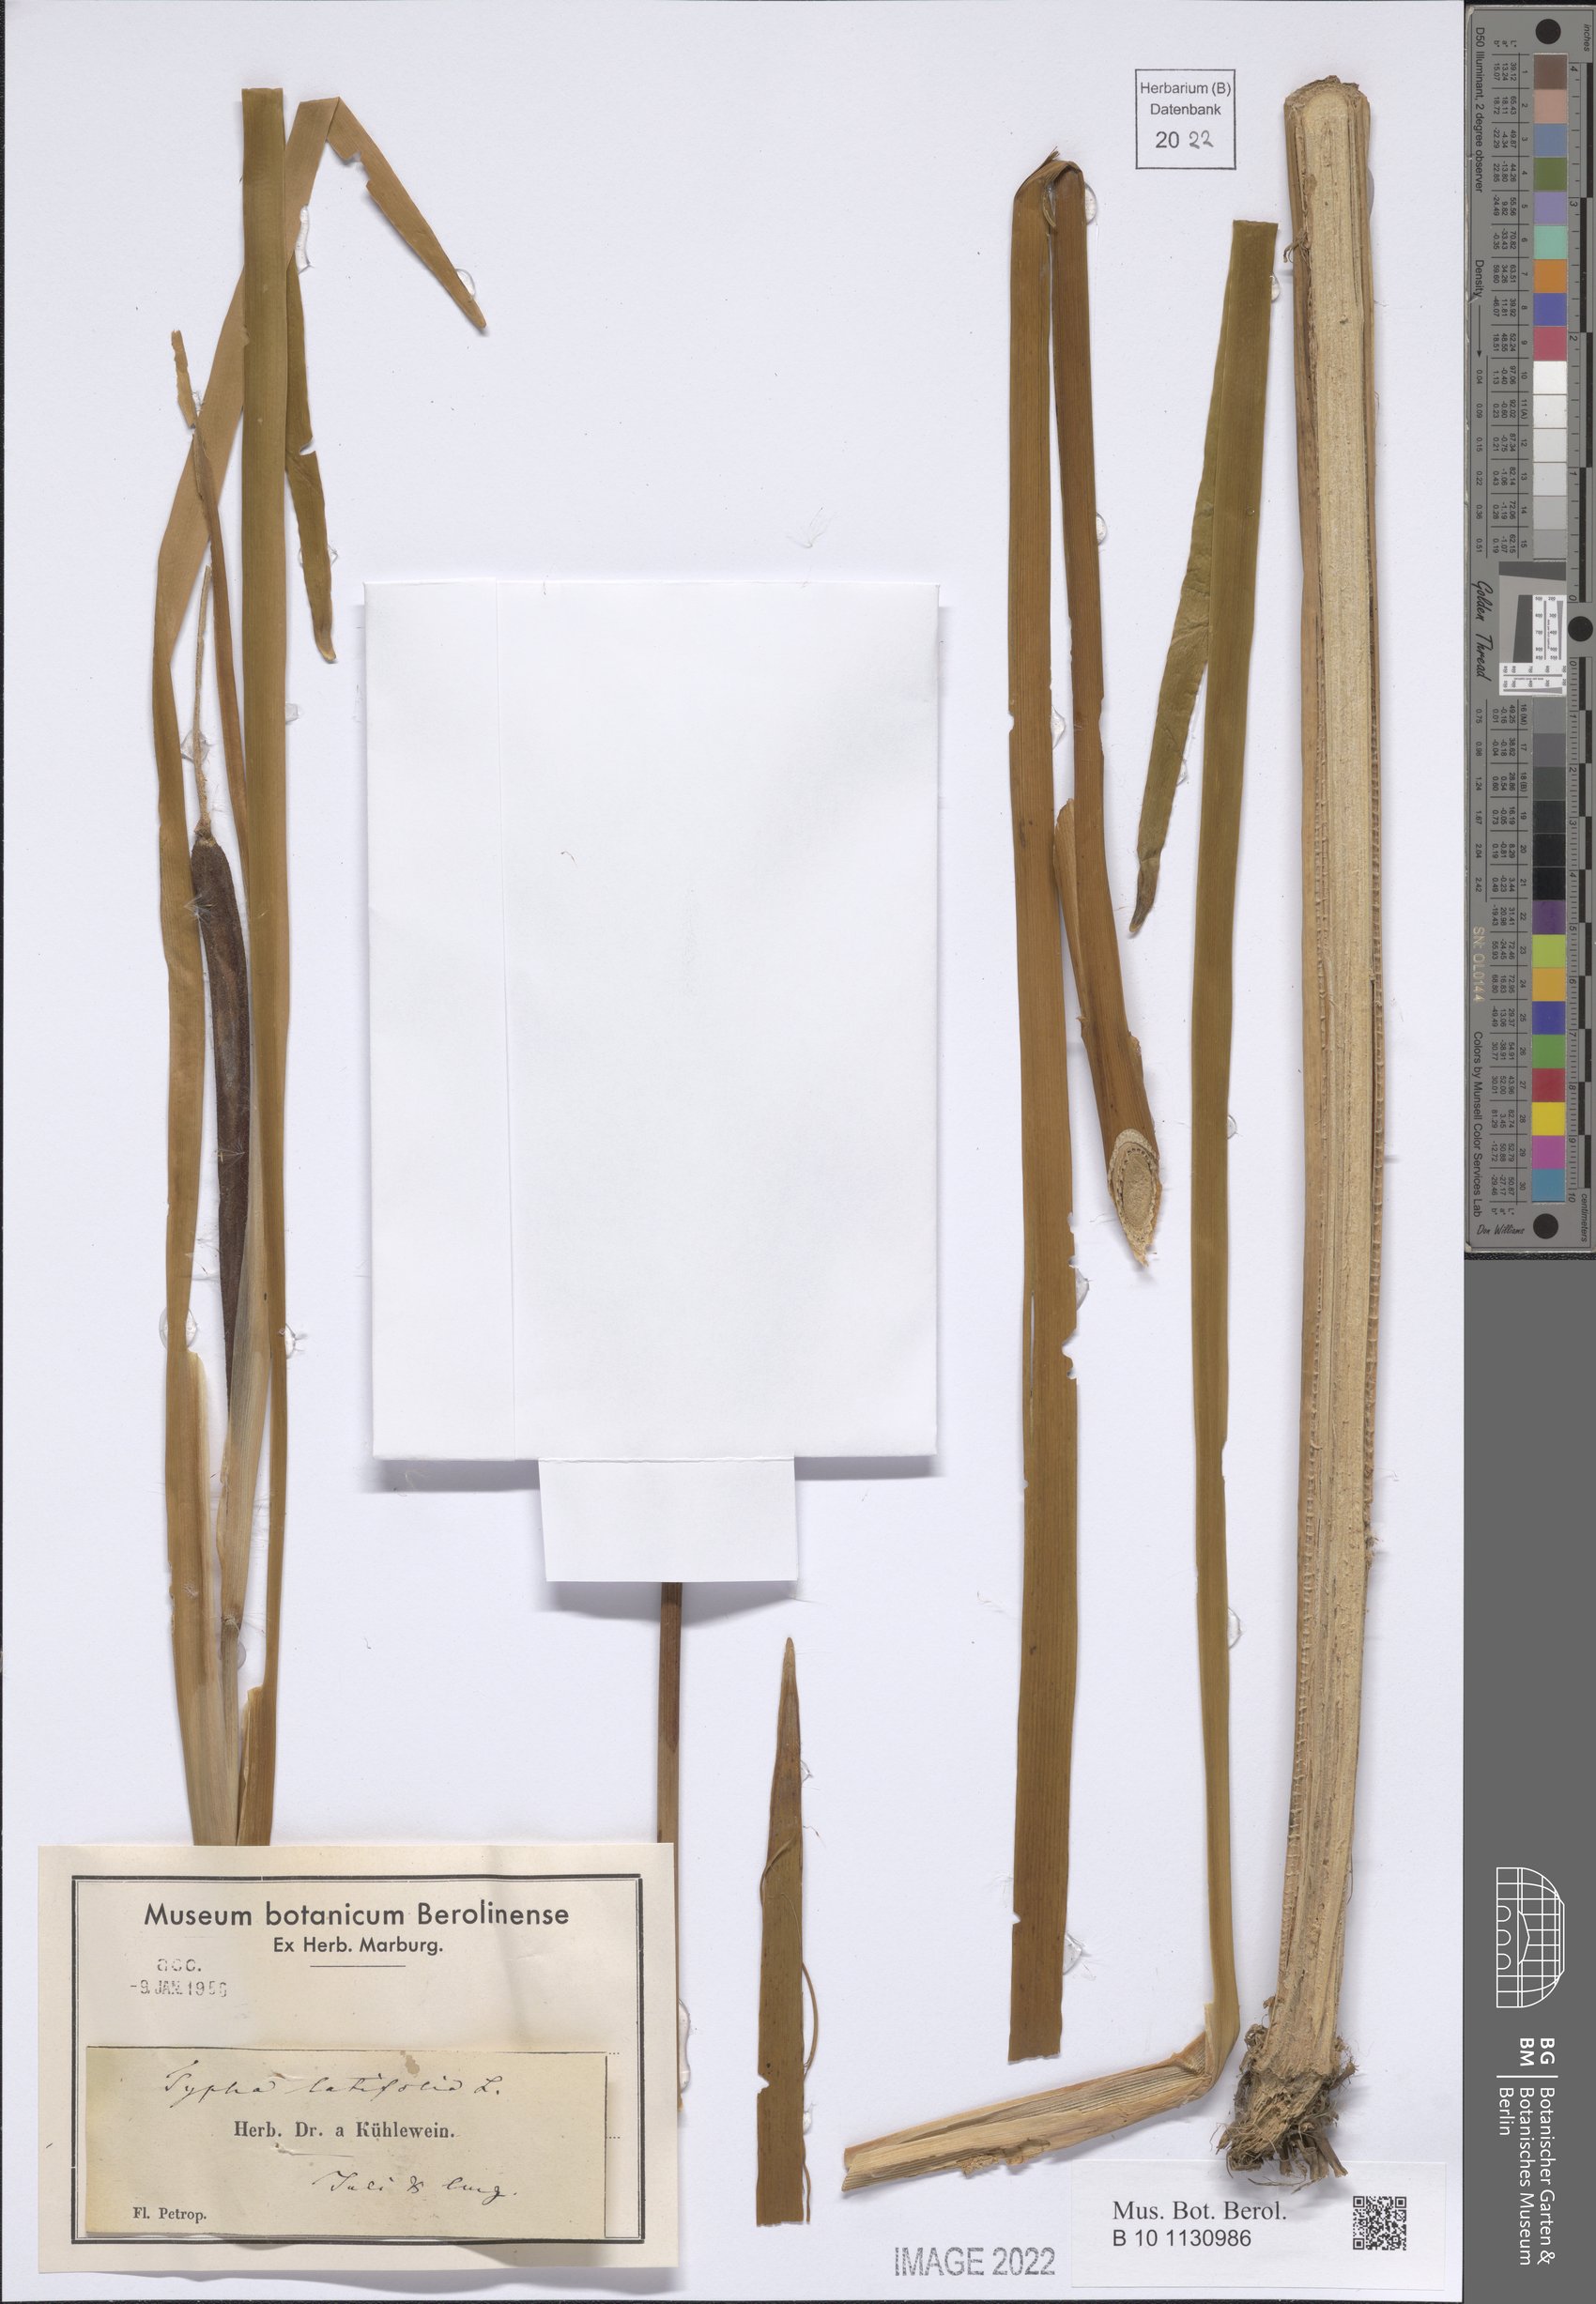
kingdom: Plantae
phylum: Tracheophyta
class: Liliopsida
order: Poales
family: Typhaceae
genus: Typha
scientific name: Typha latifolia
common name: Broadleaf cattail
